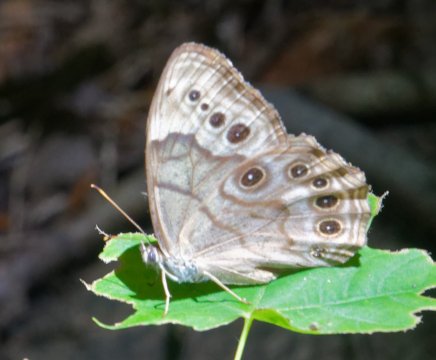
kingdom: Animalia
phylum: Arthropoda
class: Insecta
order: Lepidoptera
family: Nymphalidae
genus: Lethe
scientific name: Lethe anthedon
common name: Northern Pearly-Eye
